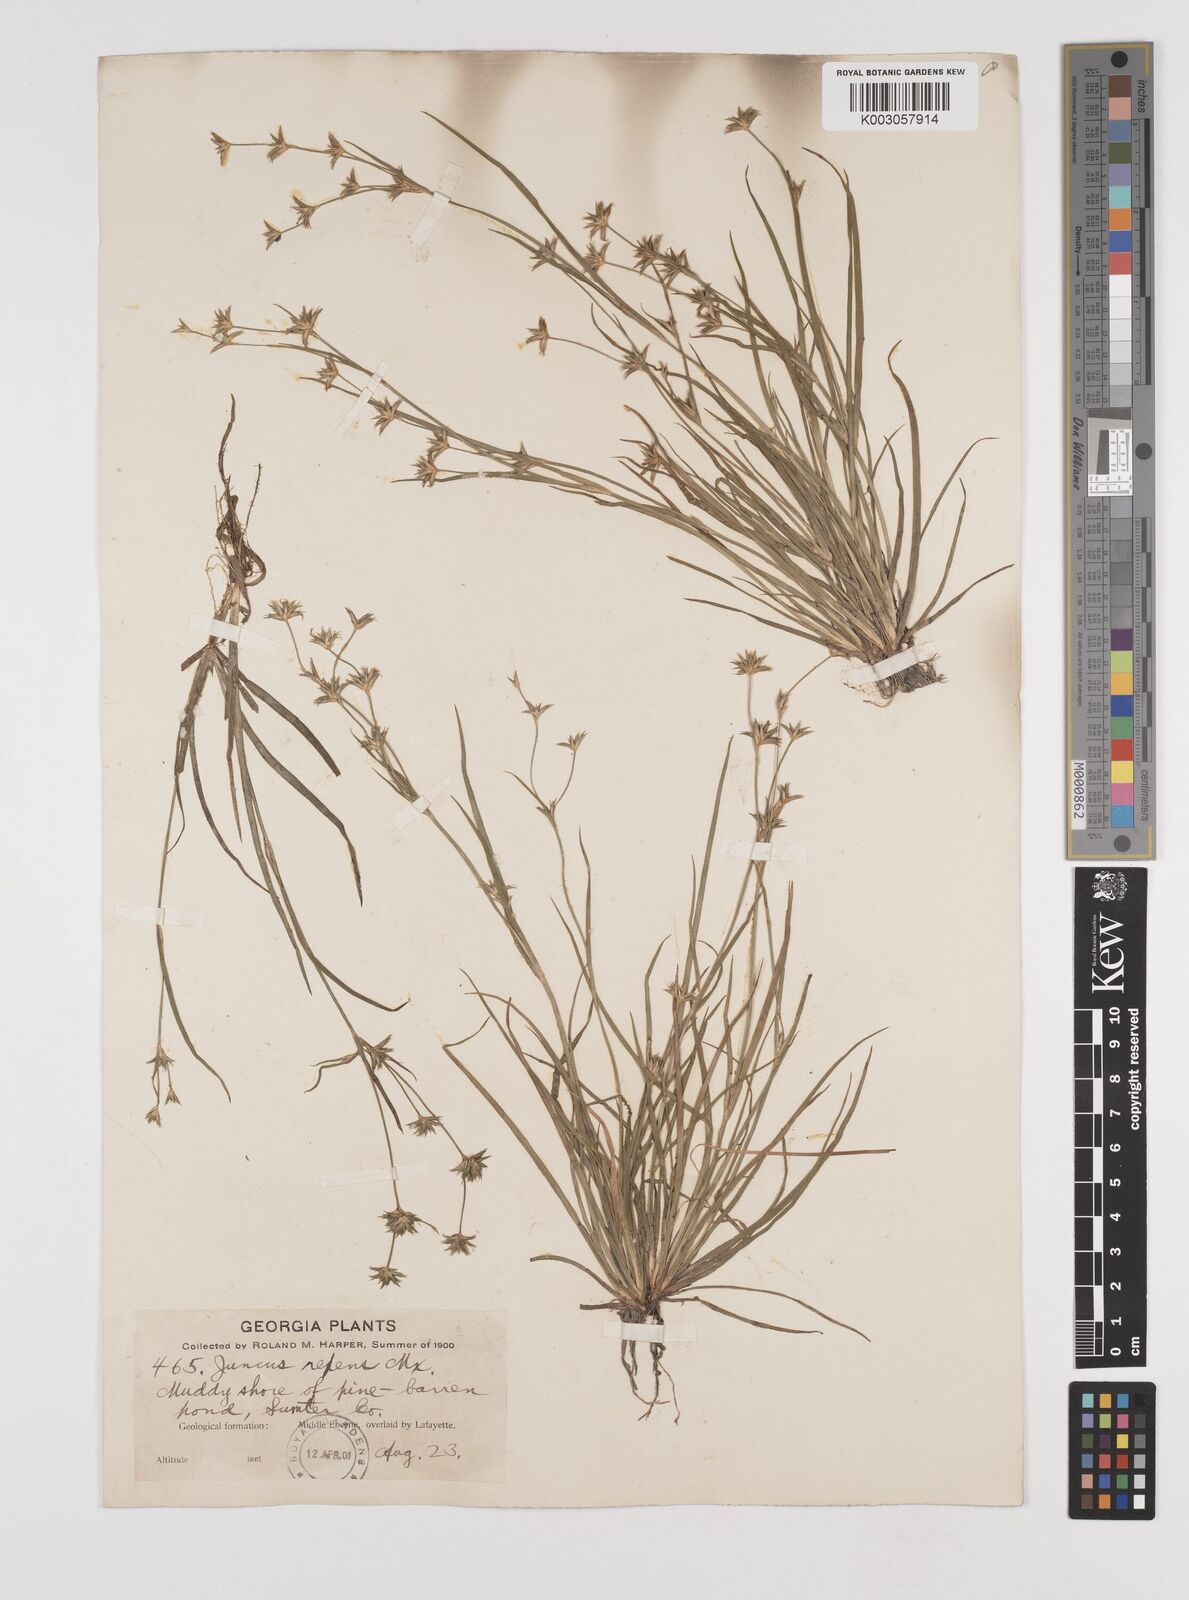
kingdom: Plantae
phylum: Tracheophyta
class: Liliopsida
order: Poales
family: Juncaceae
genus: Juncus
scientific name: Juncus repens
